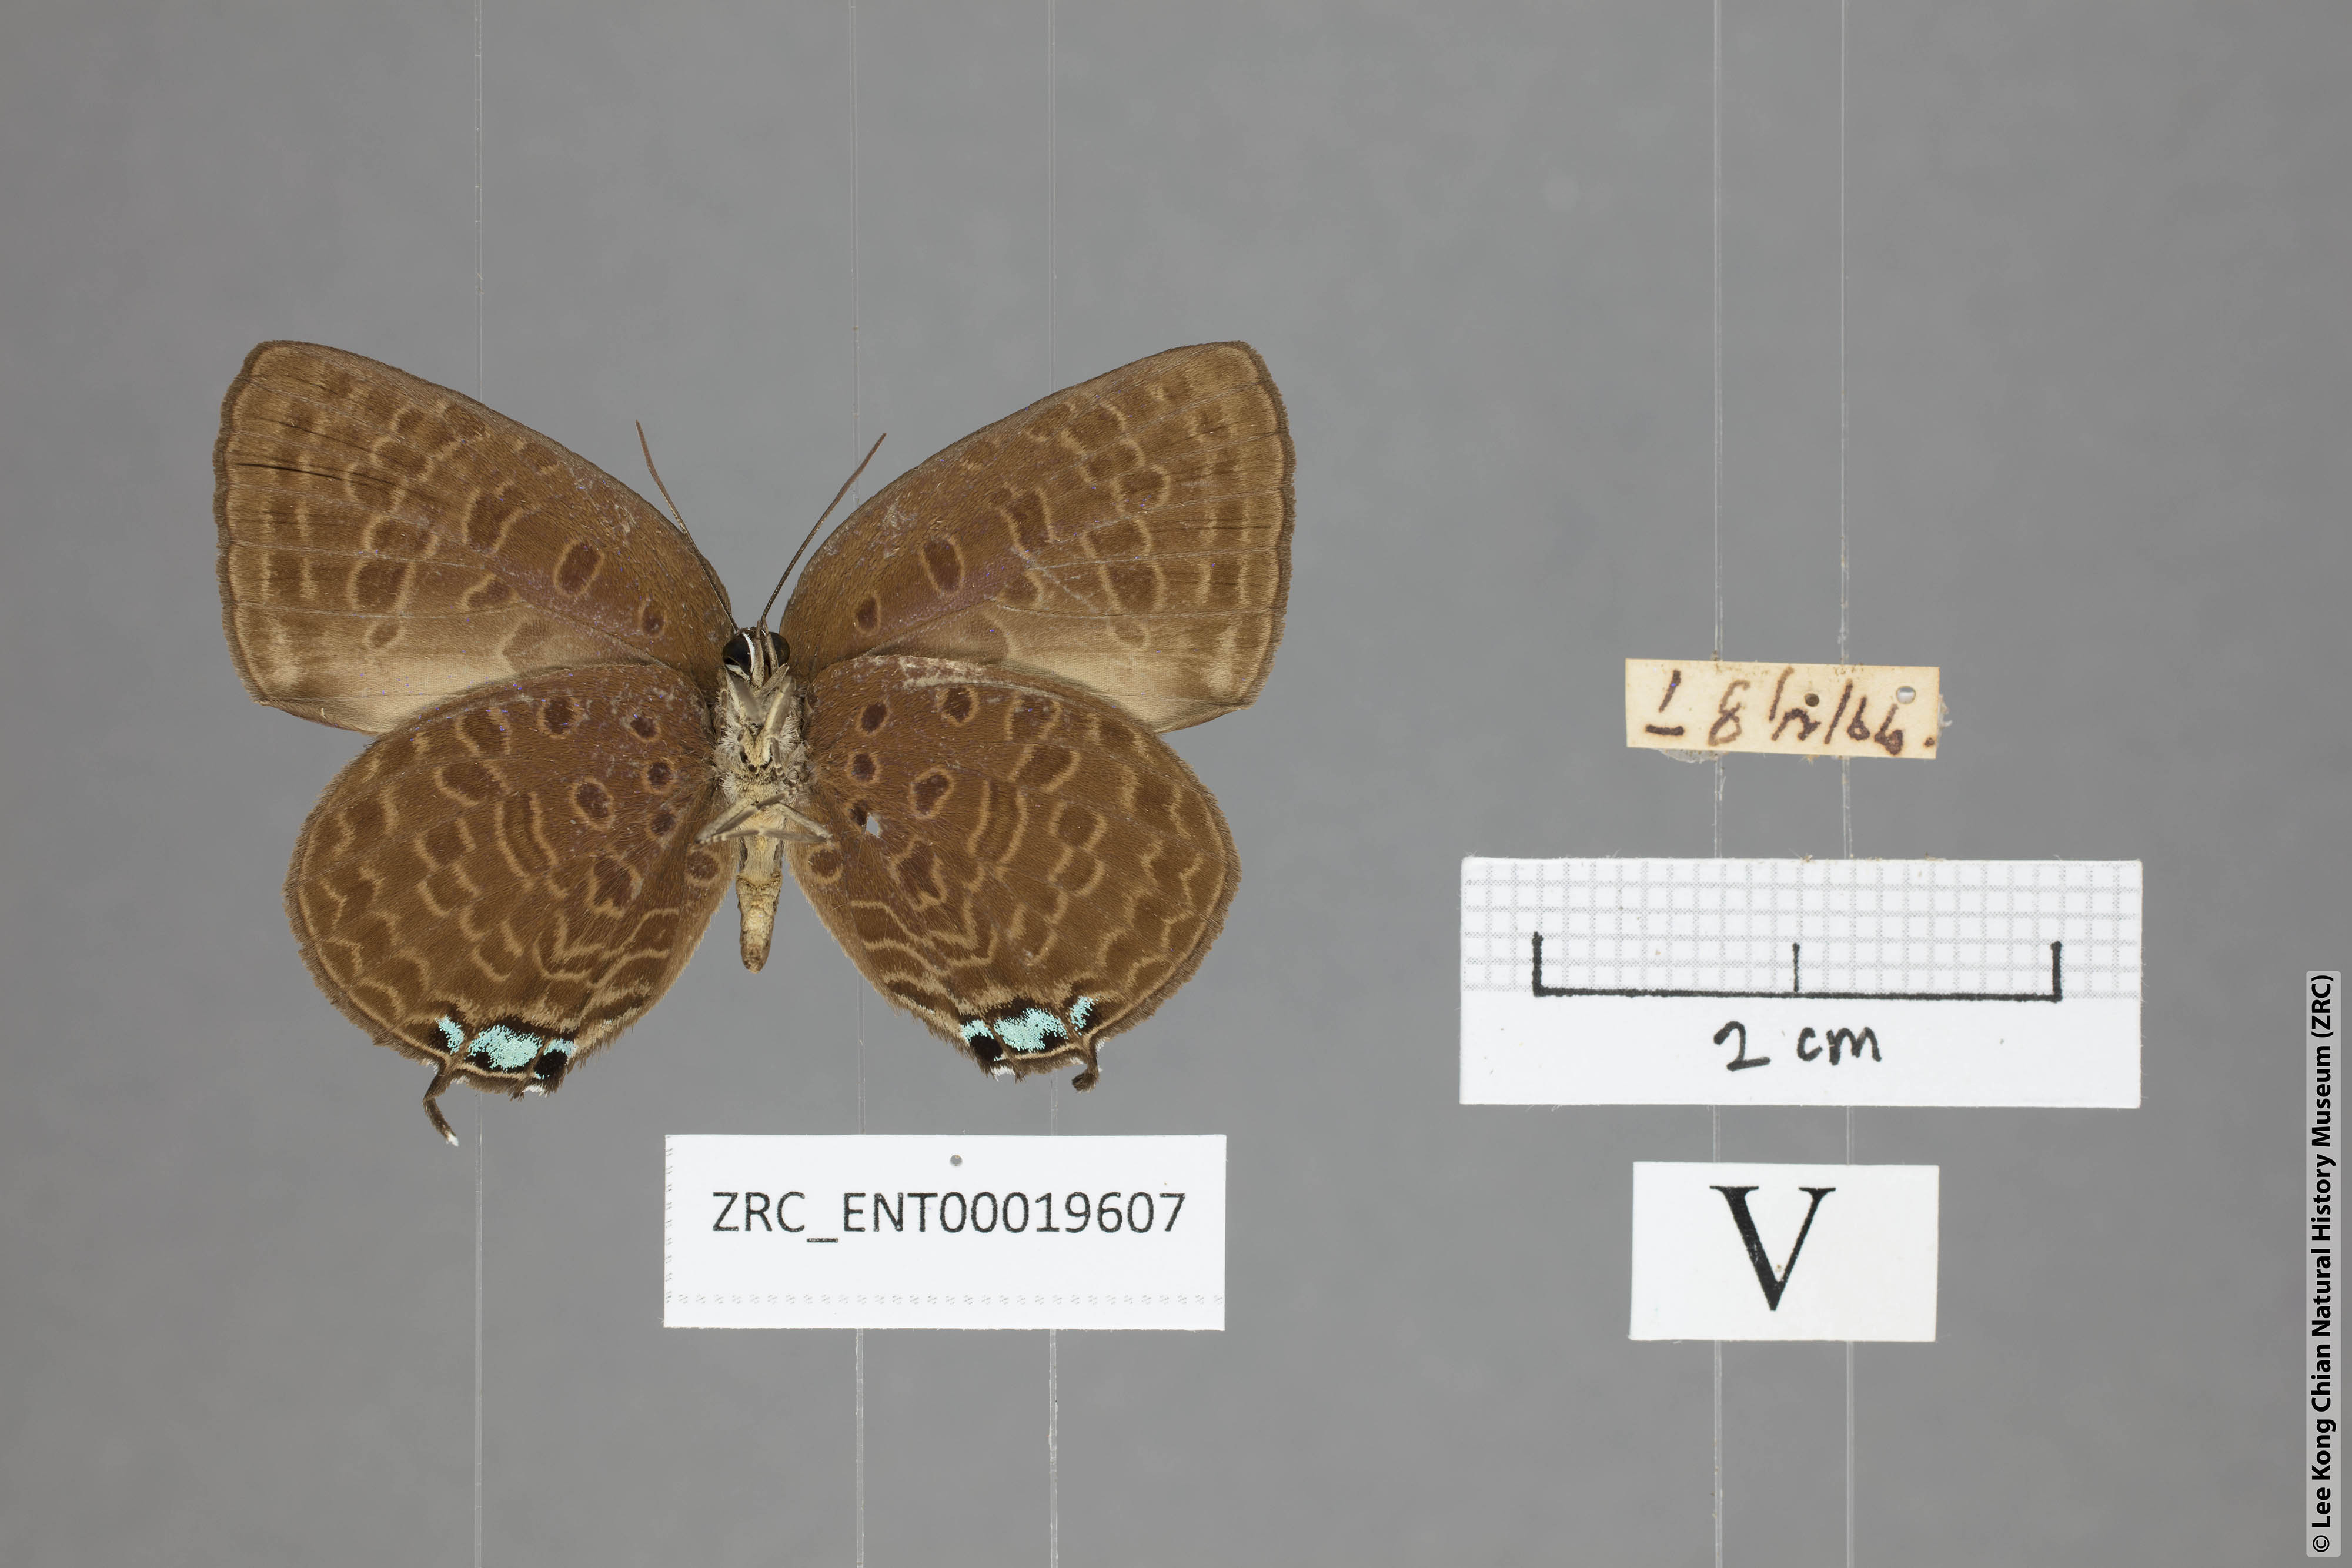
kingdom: Animalia
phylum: Arthropoda
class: Insecta
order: Lepidoptera
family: Lycaenidae
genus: Arhopala
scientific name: Arhopala atosia
